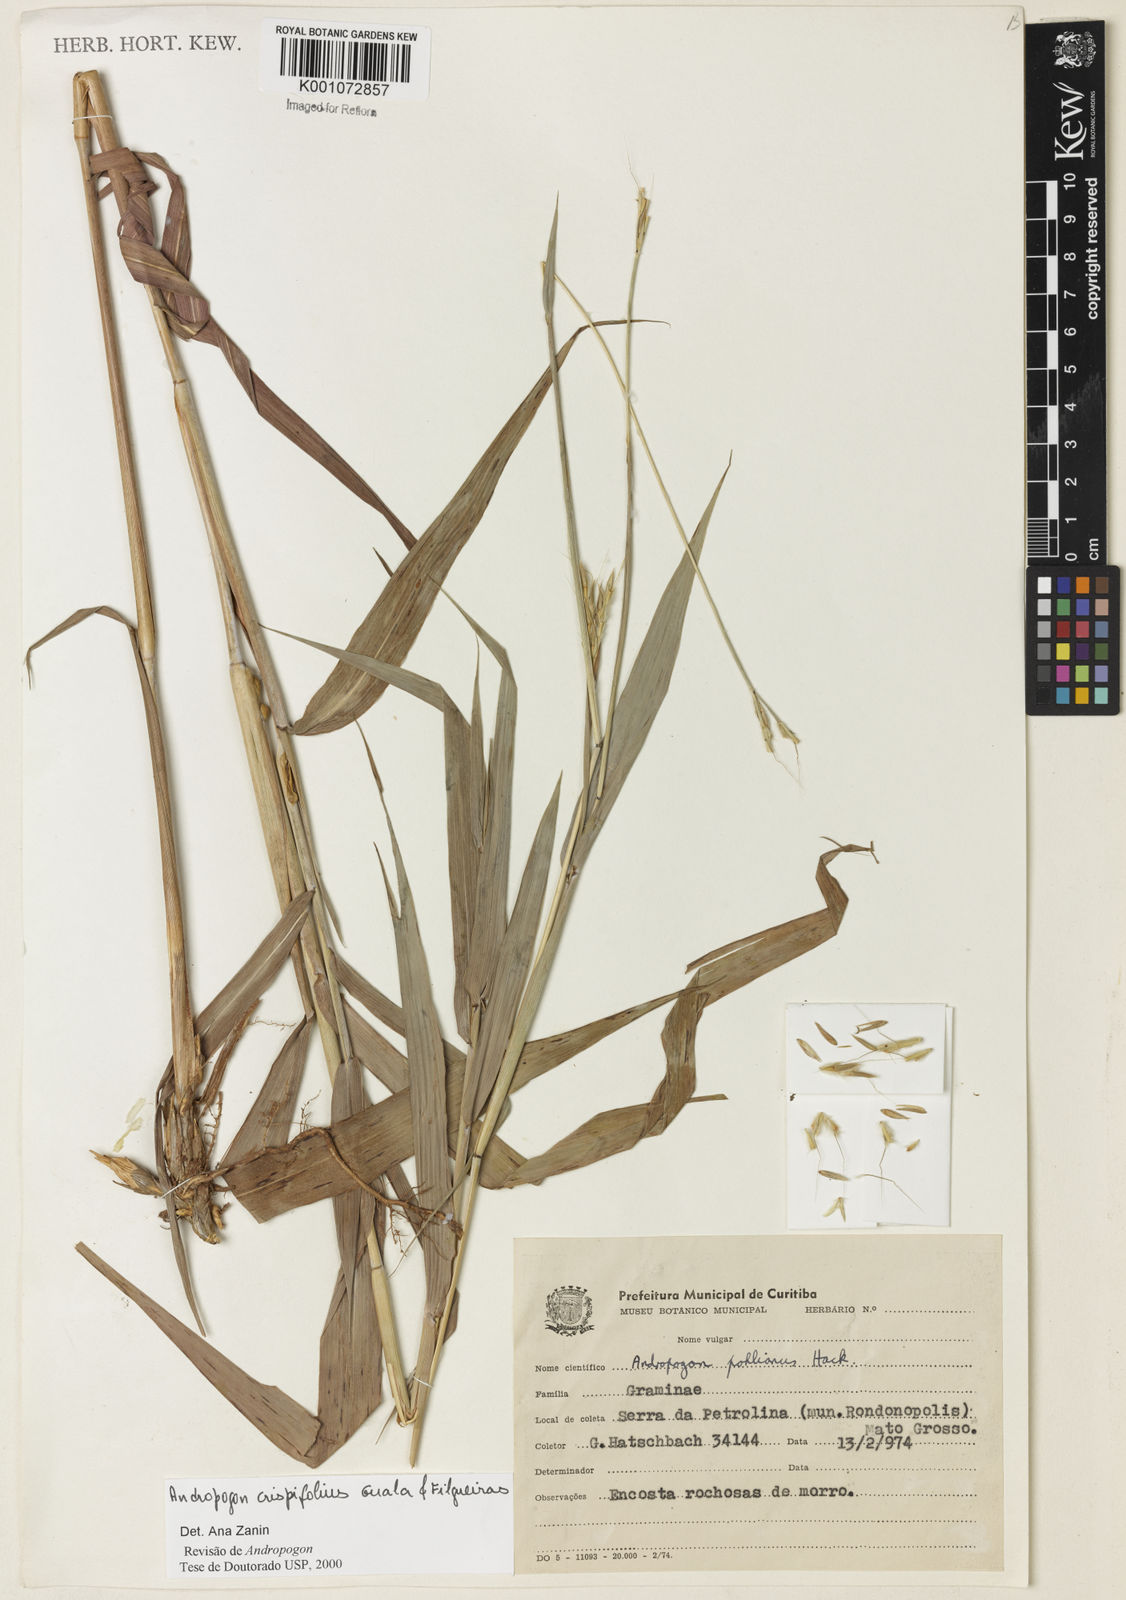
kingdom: Plantae
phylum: Tracheophyta
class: Liliopsida
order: Poales
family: Poaceae
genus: Andropogon
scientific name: Andropogon pohlianus
